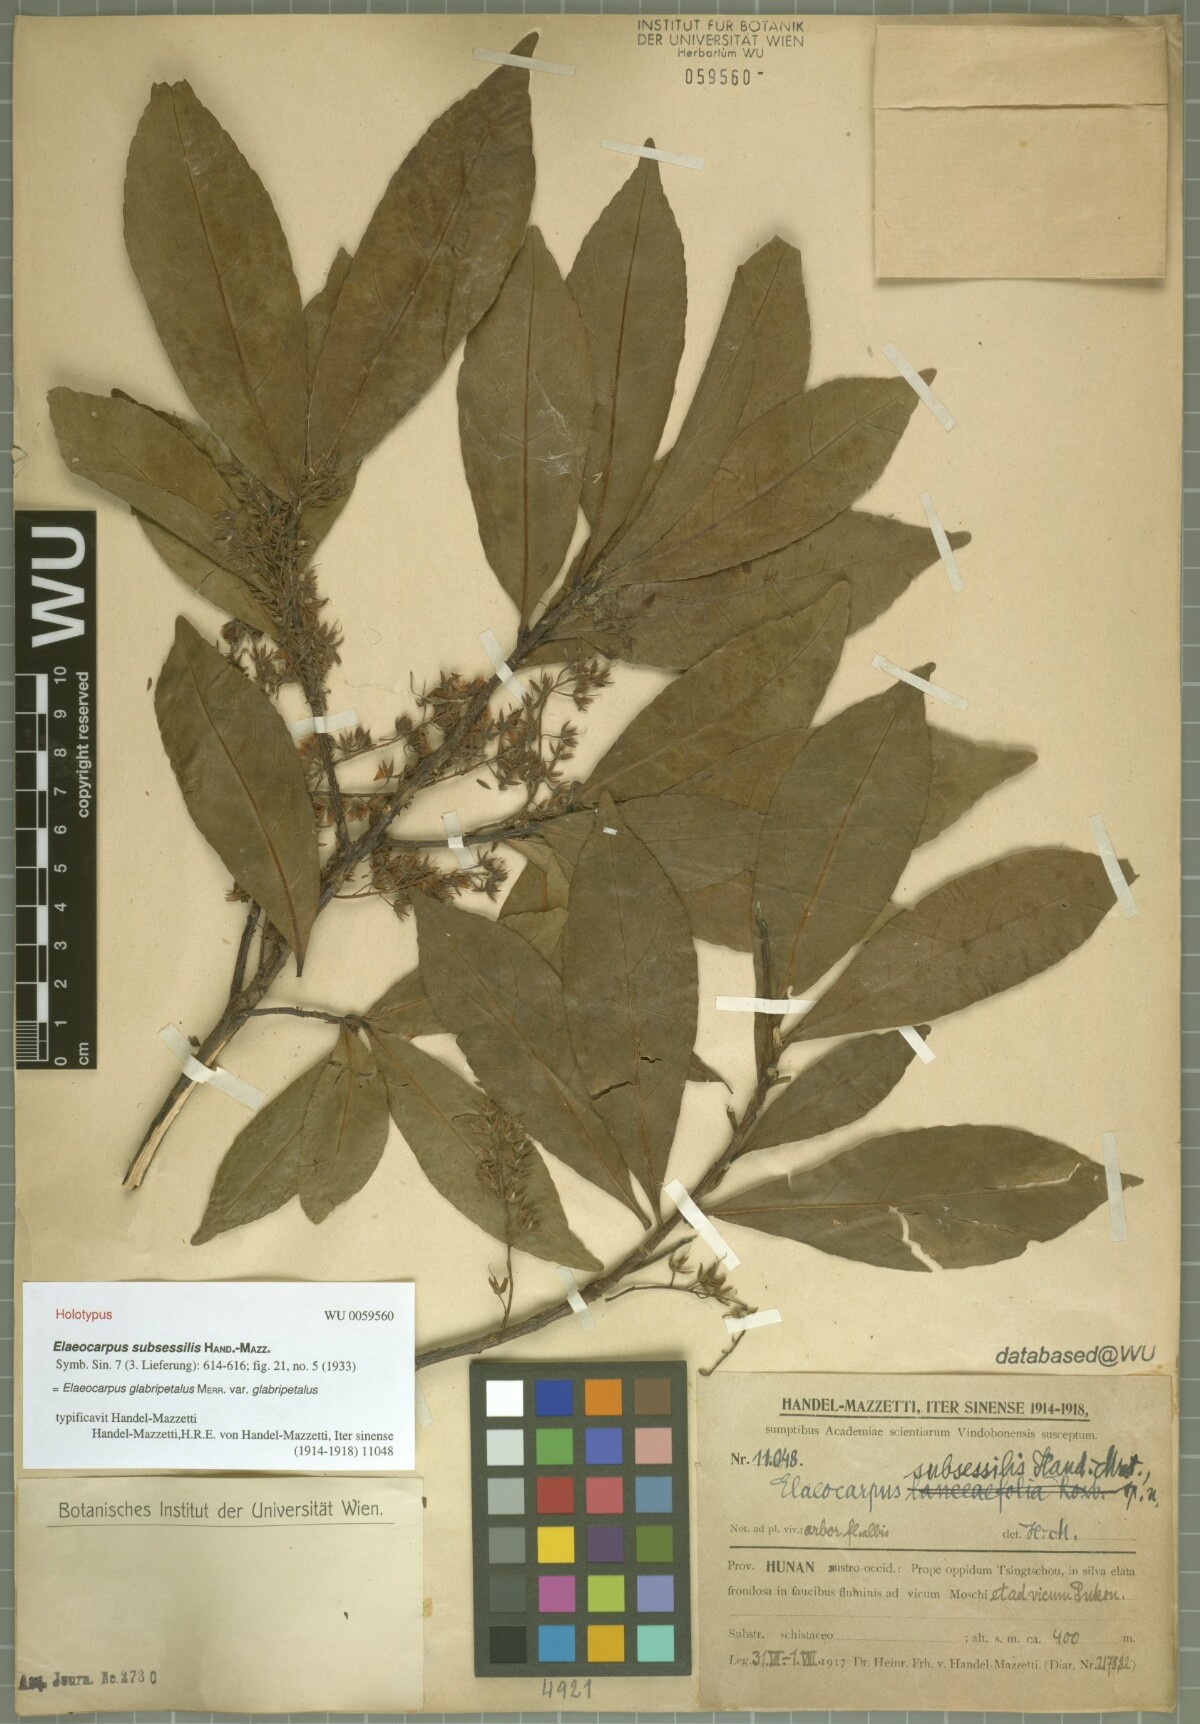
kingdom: Plantae
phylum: Tracheophyta
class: Magnoliopsida
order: Oxalidales
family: Elaeocarpaceae
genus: Elaeocarpus
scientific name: Elaeocarpus glabripetalus
